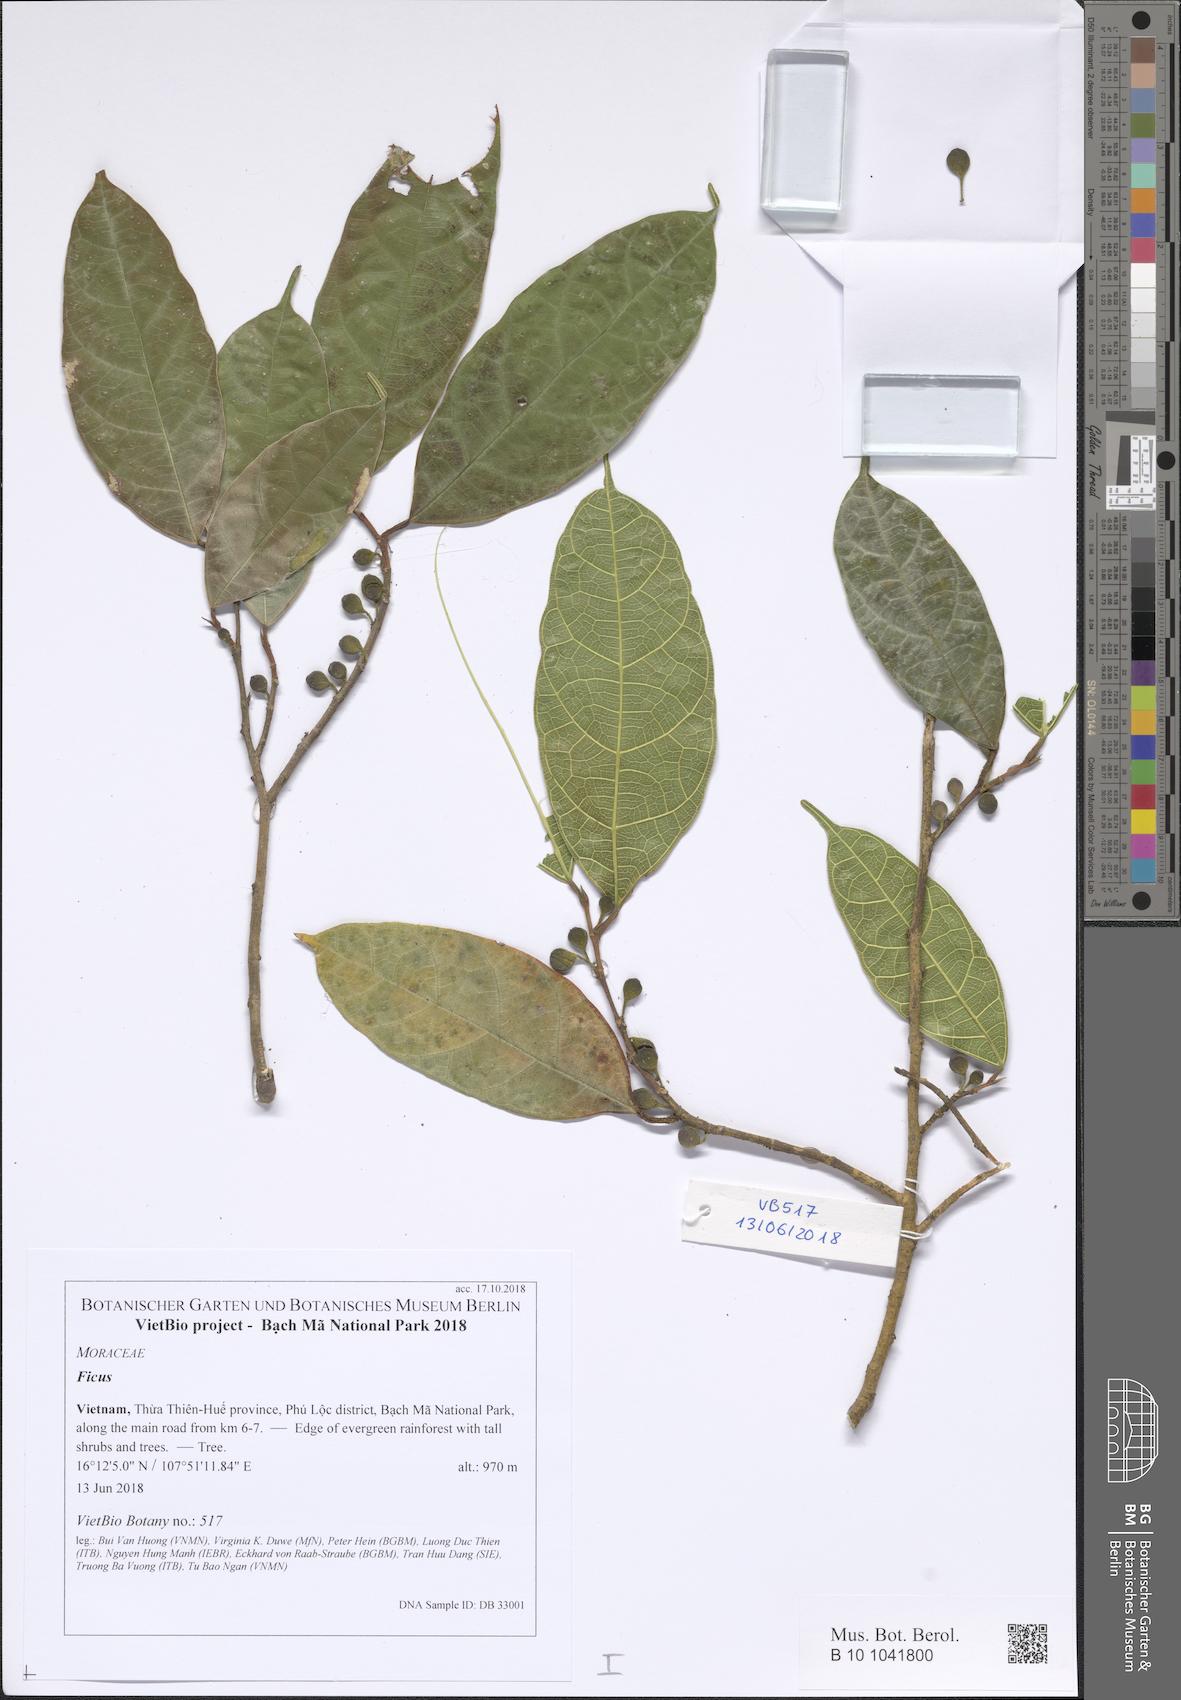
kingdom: Plantae
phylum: Tracheophyta
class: Magnoliopsida
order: Rosales
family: Moraceae
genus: Ficus
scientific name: Ficus
